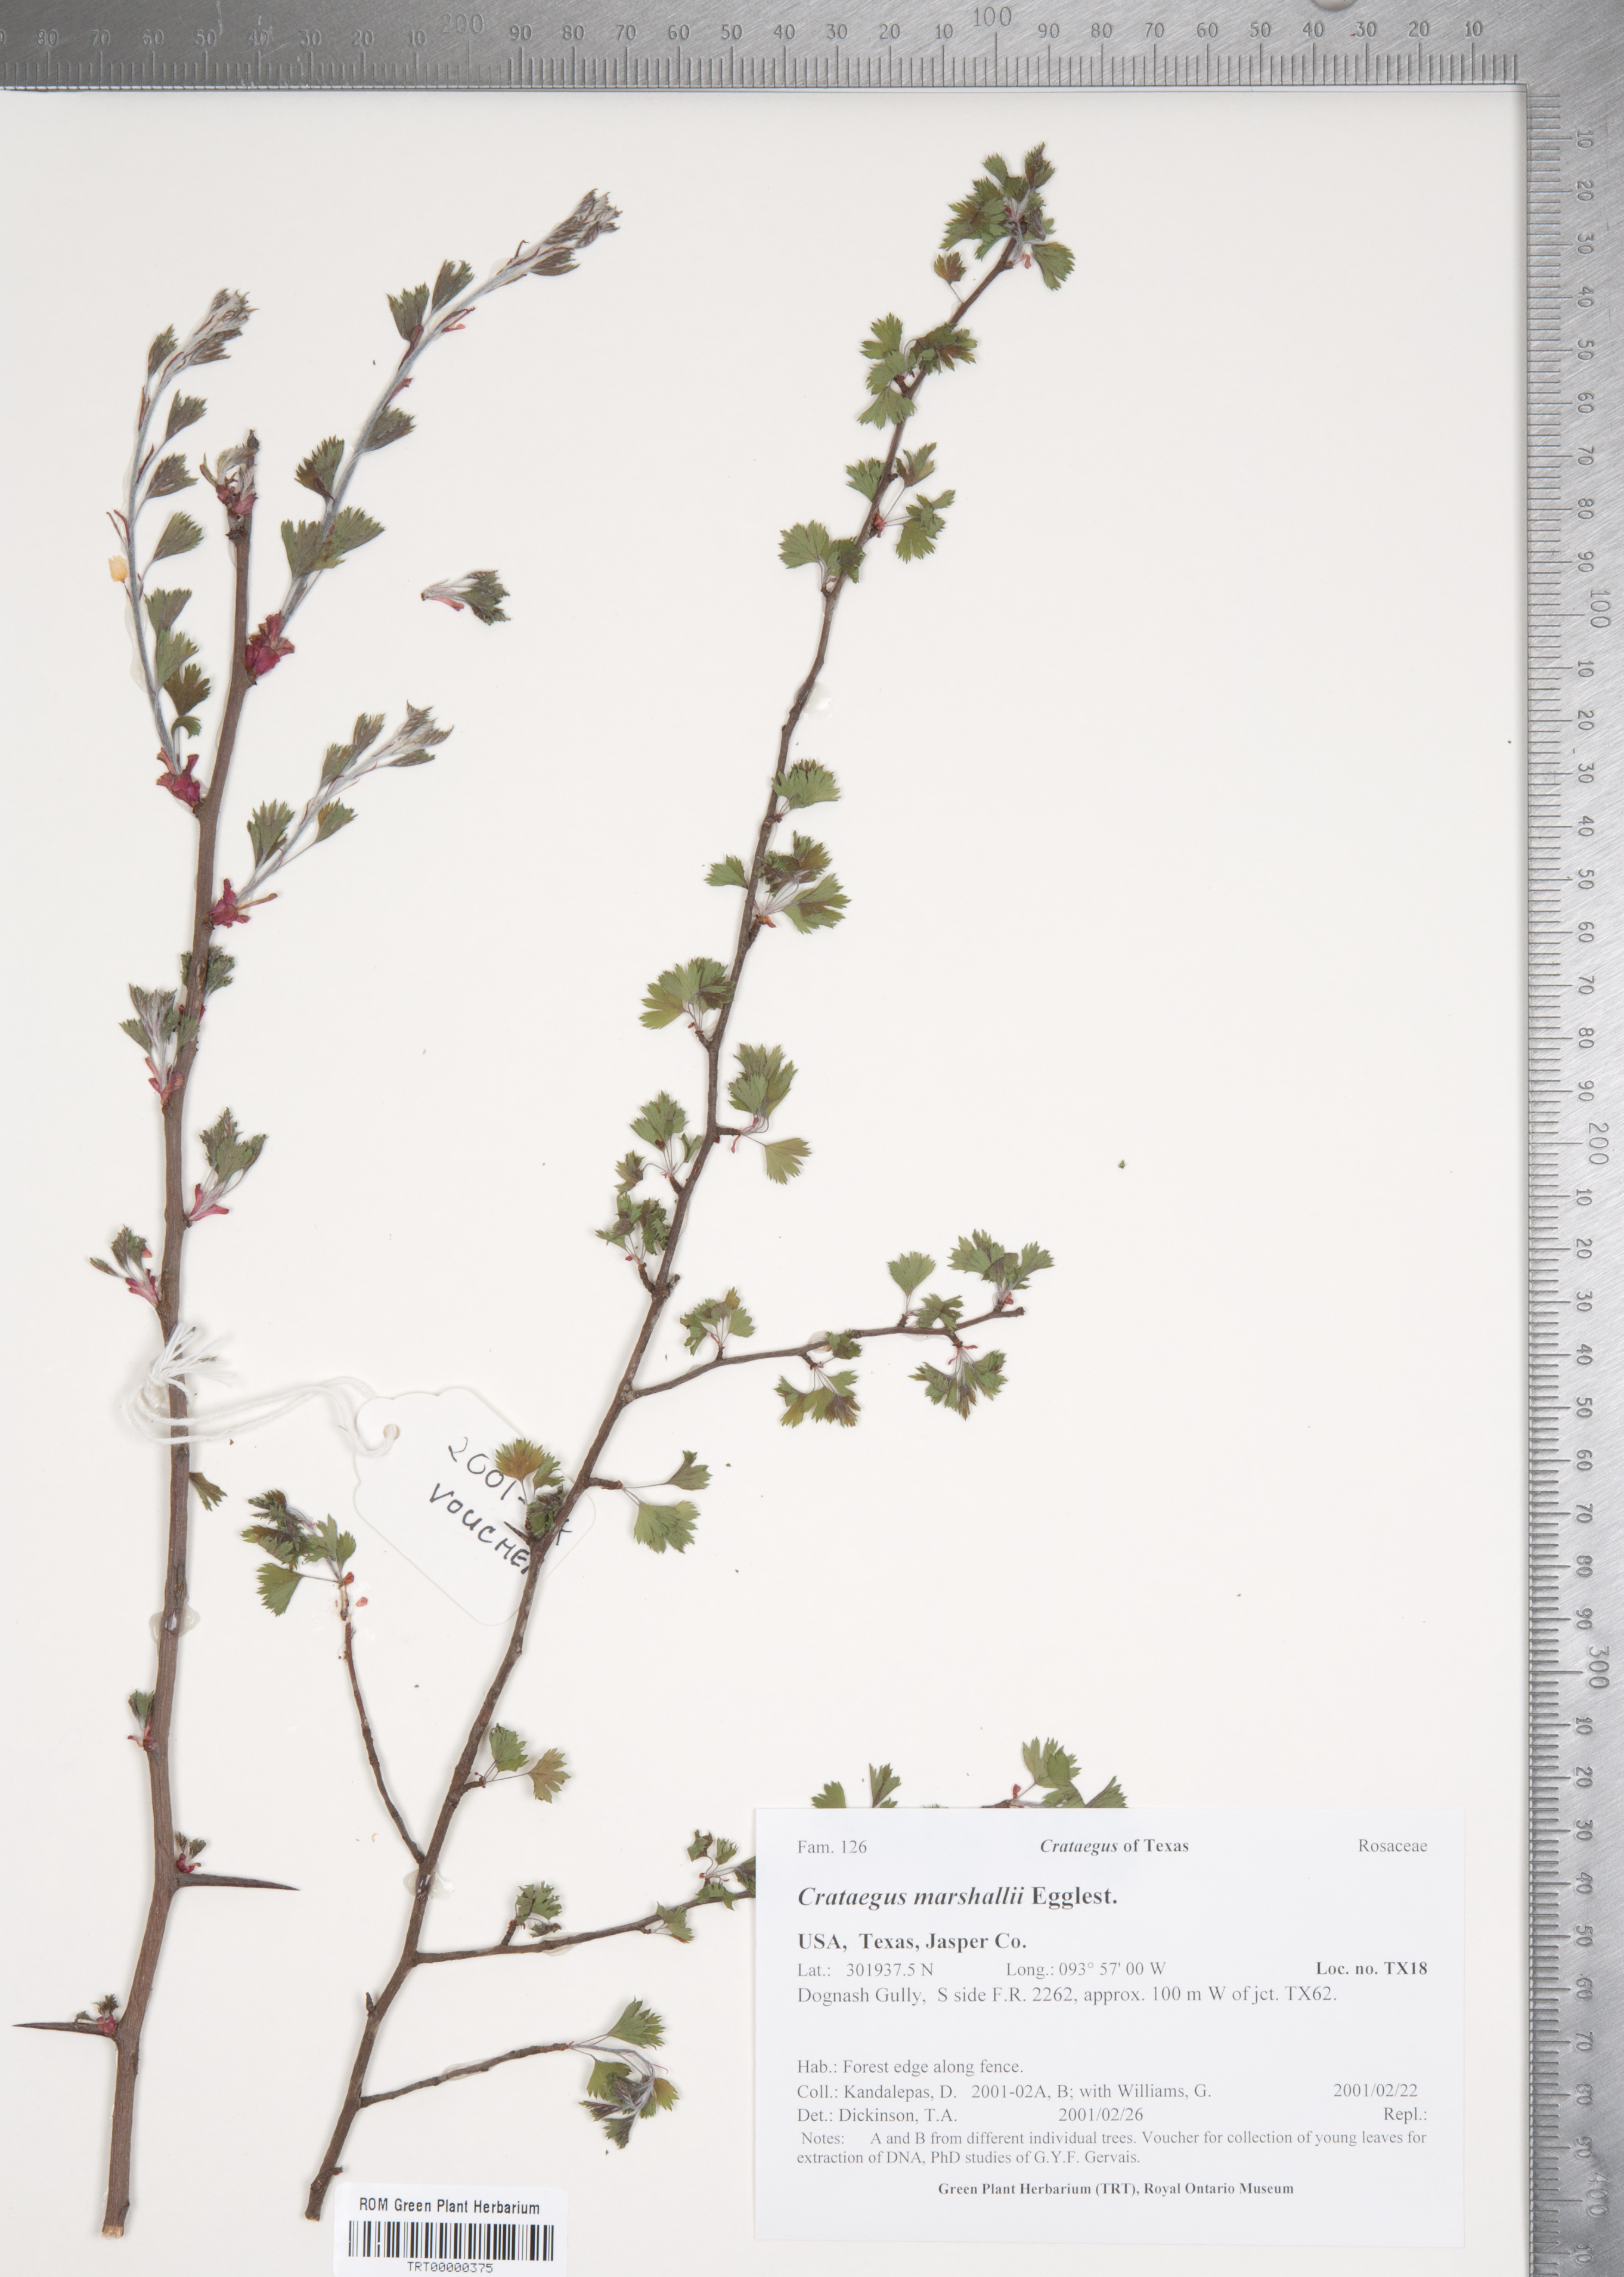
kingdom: Plantae
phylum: Tracheophyta
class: Magnoliopsida
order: Rosales
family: Rosaceae
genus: Crataegus
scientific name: Crataegus marshallii
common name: Parsley-hawthorn
